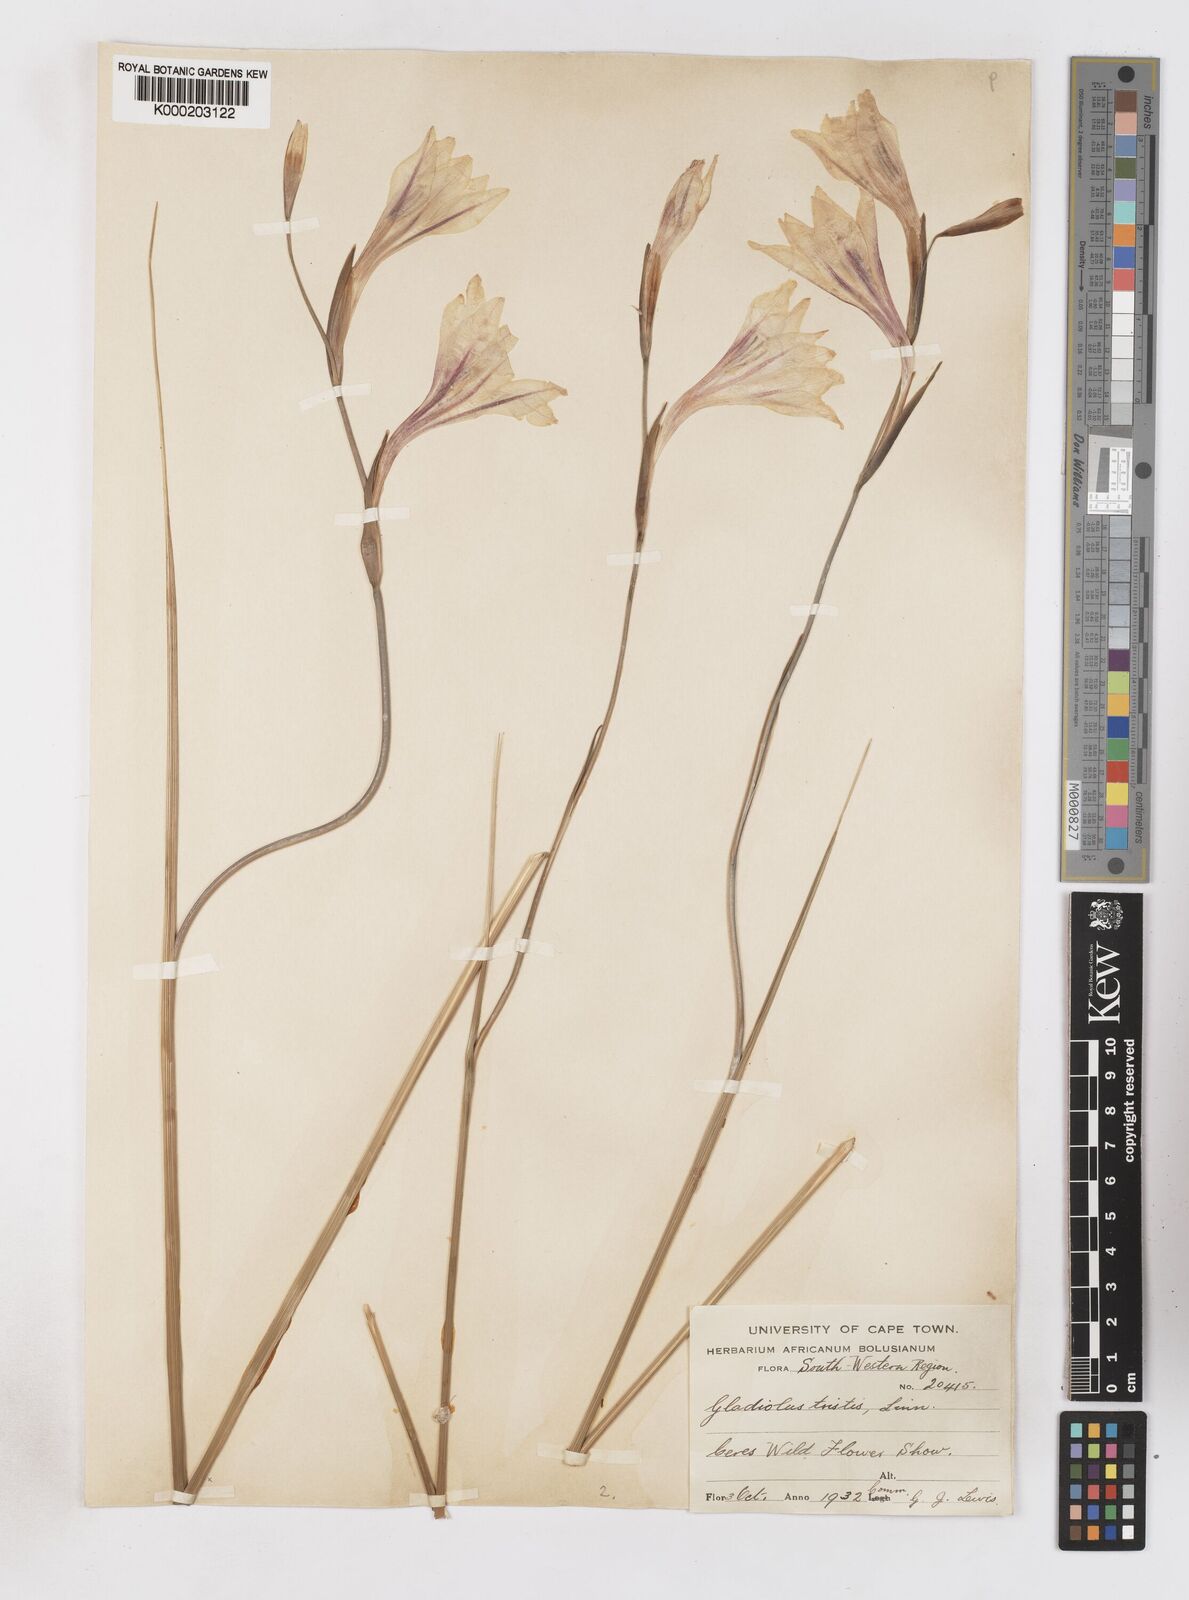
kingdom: Plantae
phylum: Tracheophyta
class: Liliopsida
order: Asparagales
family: Iridaceae
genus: Gladiolus
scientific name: Gladiolus tristis
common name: Ever-flowering gladiolus
